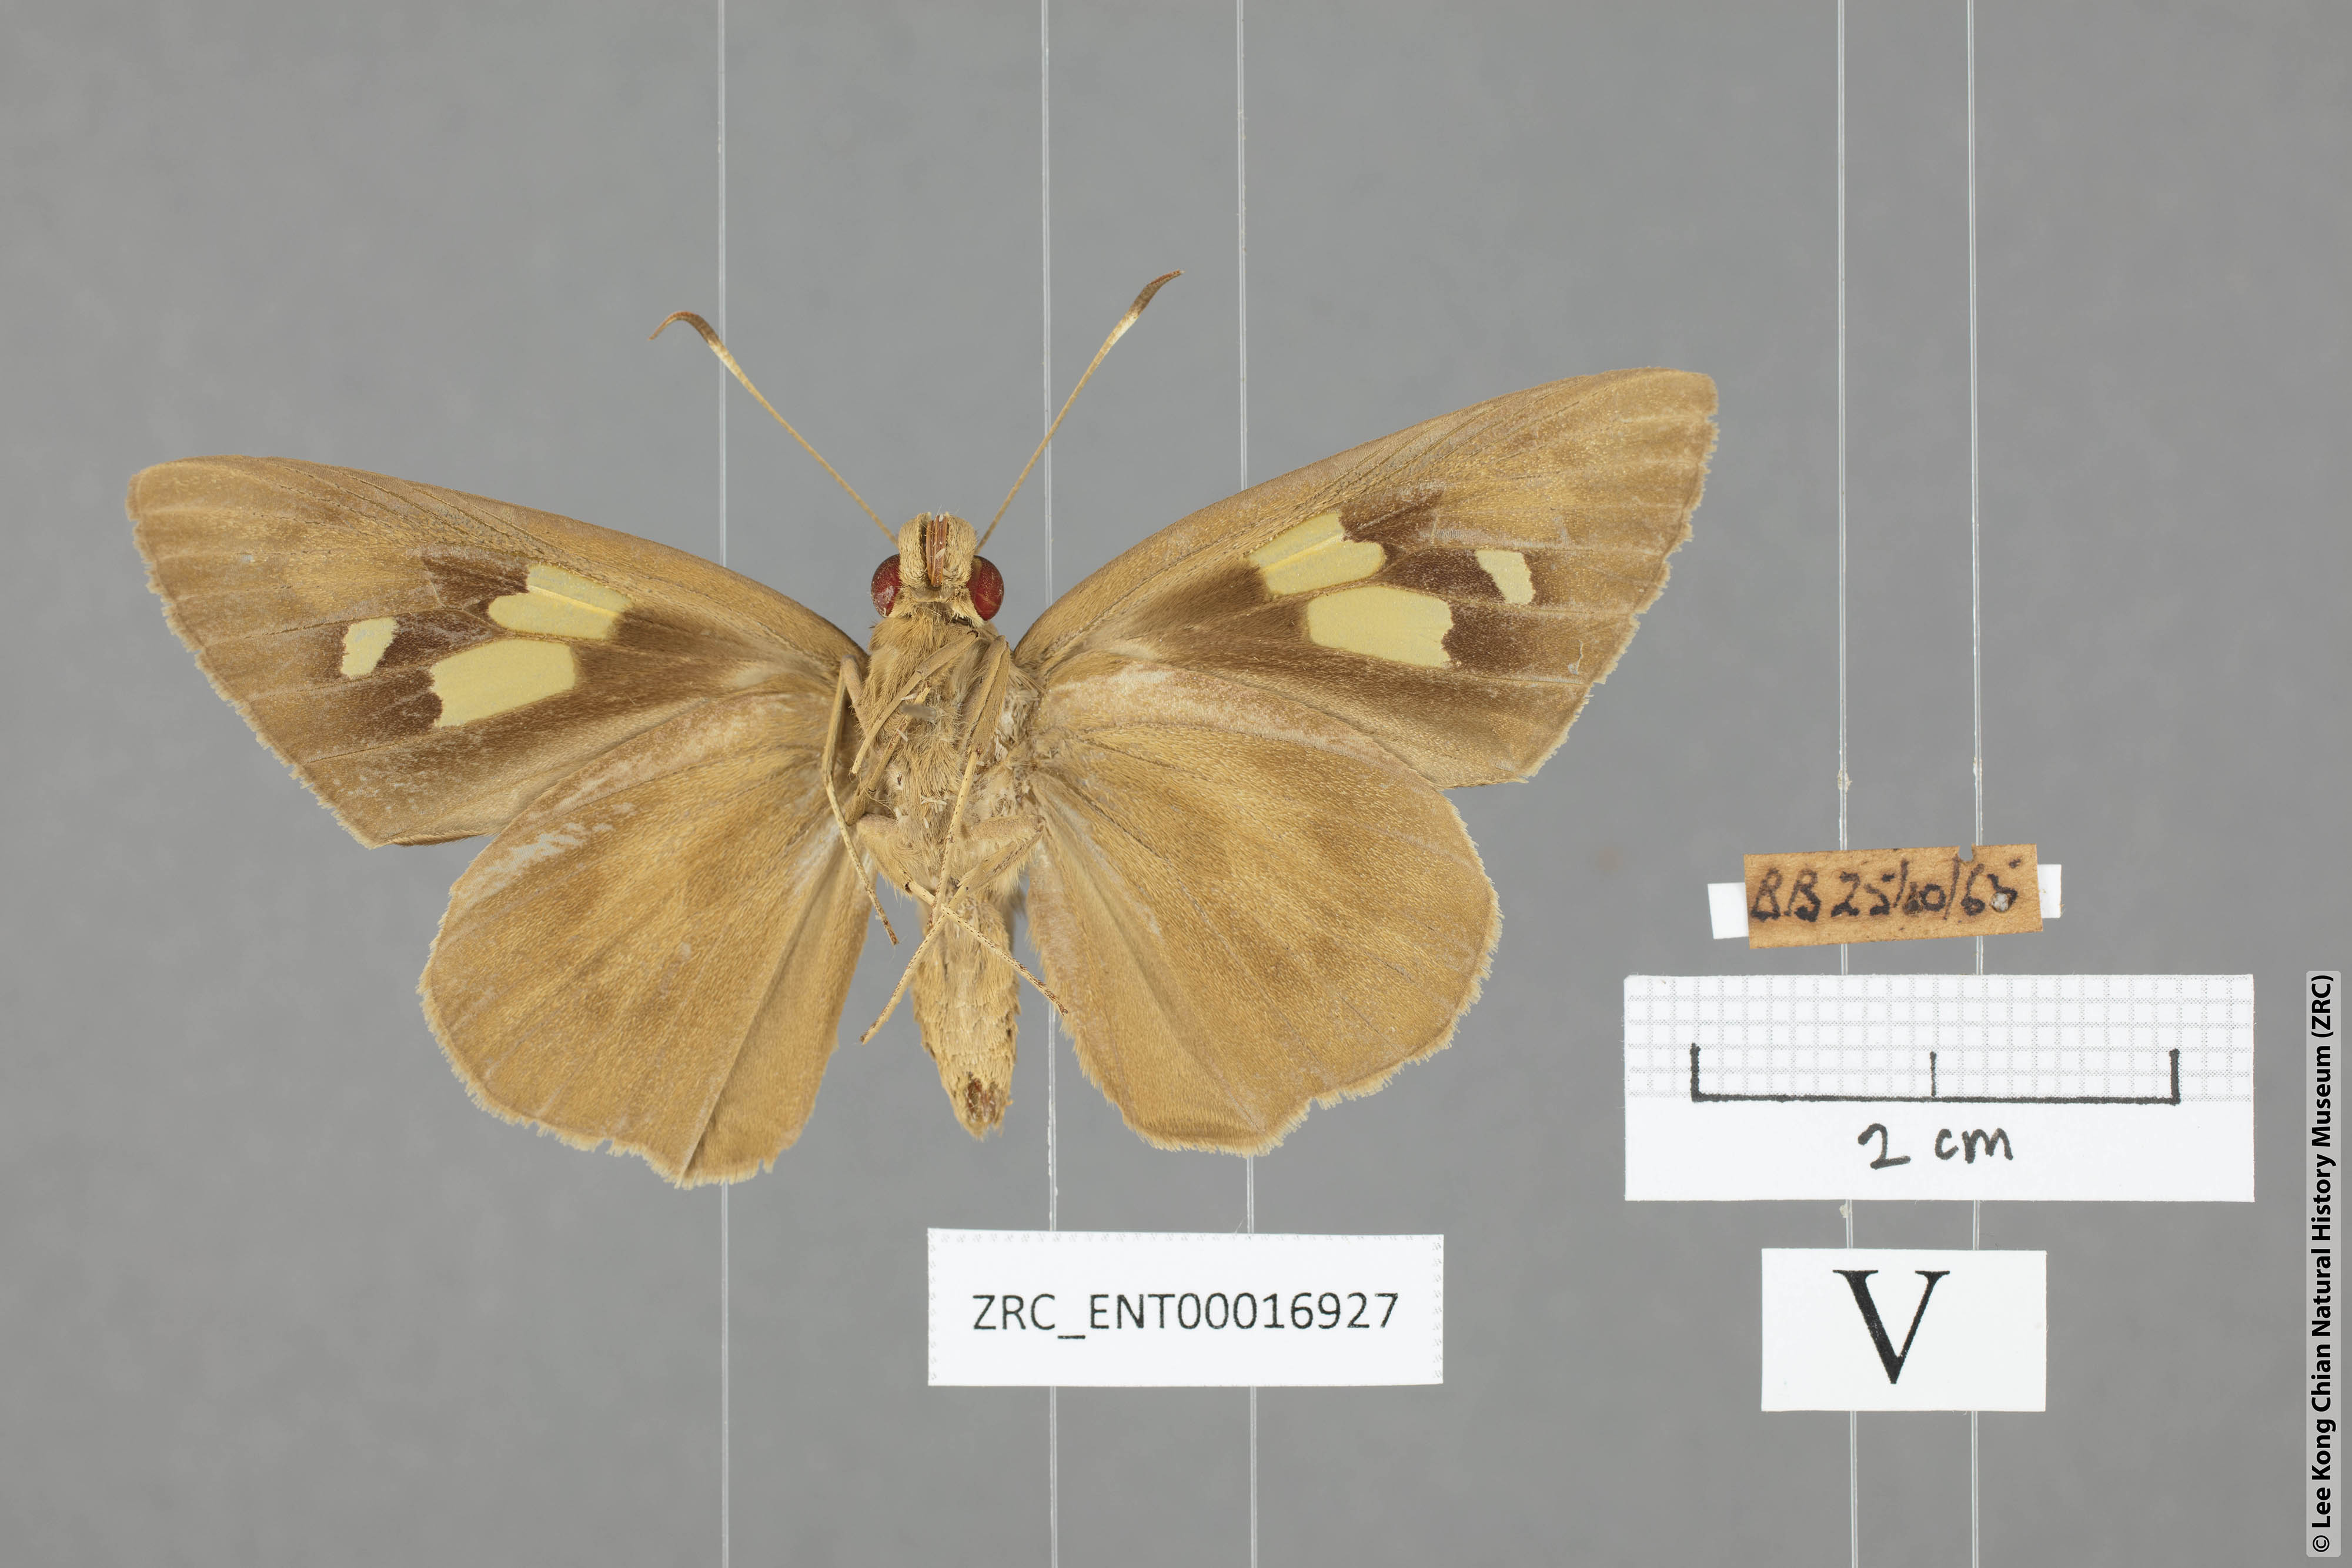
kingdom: Animalia
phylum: Arthropoda
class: Insecta
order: Lepidoptera
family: Hesperiidae
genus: Erionota
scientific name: Erionota torus
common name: Rounded palm-redeye
